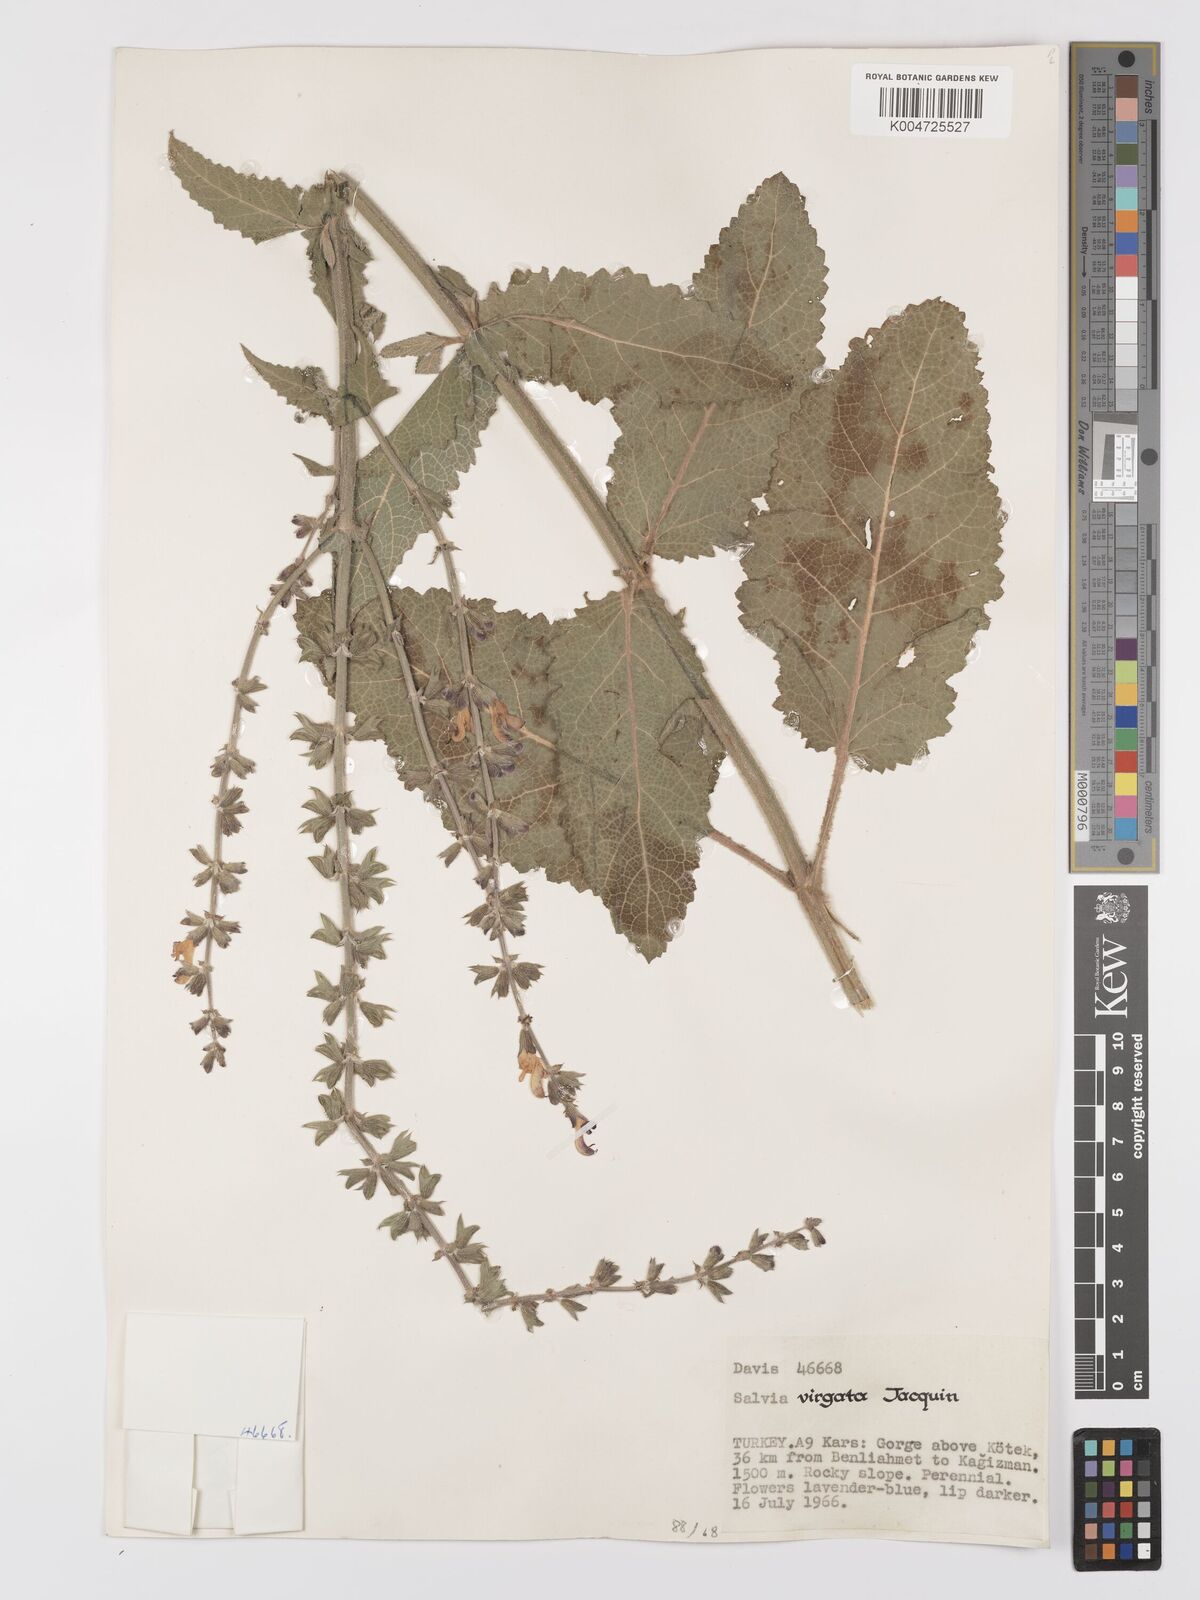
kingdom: Plantae
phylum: Tracheophyta
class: Magnoliopsida
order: Lamiales
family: Lamiaceae
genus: Salvia
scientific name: Salvia
